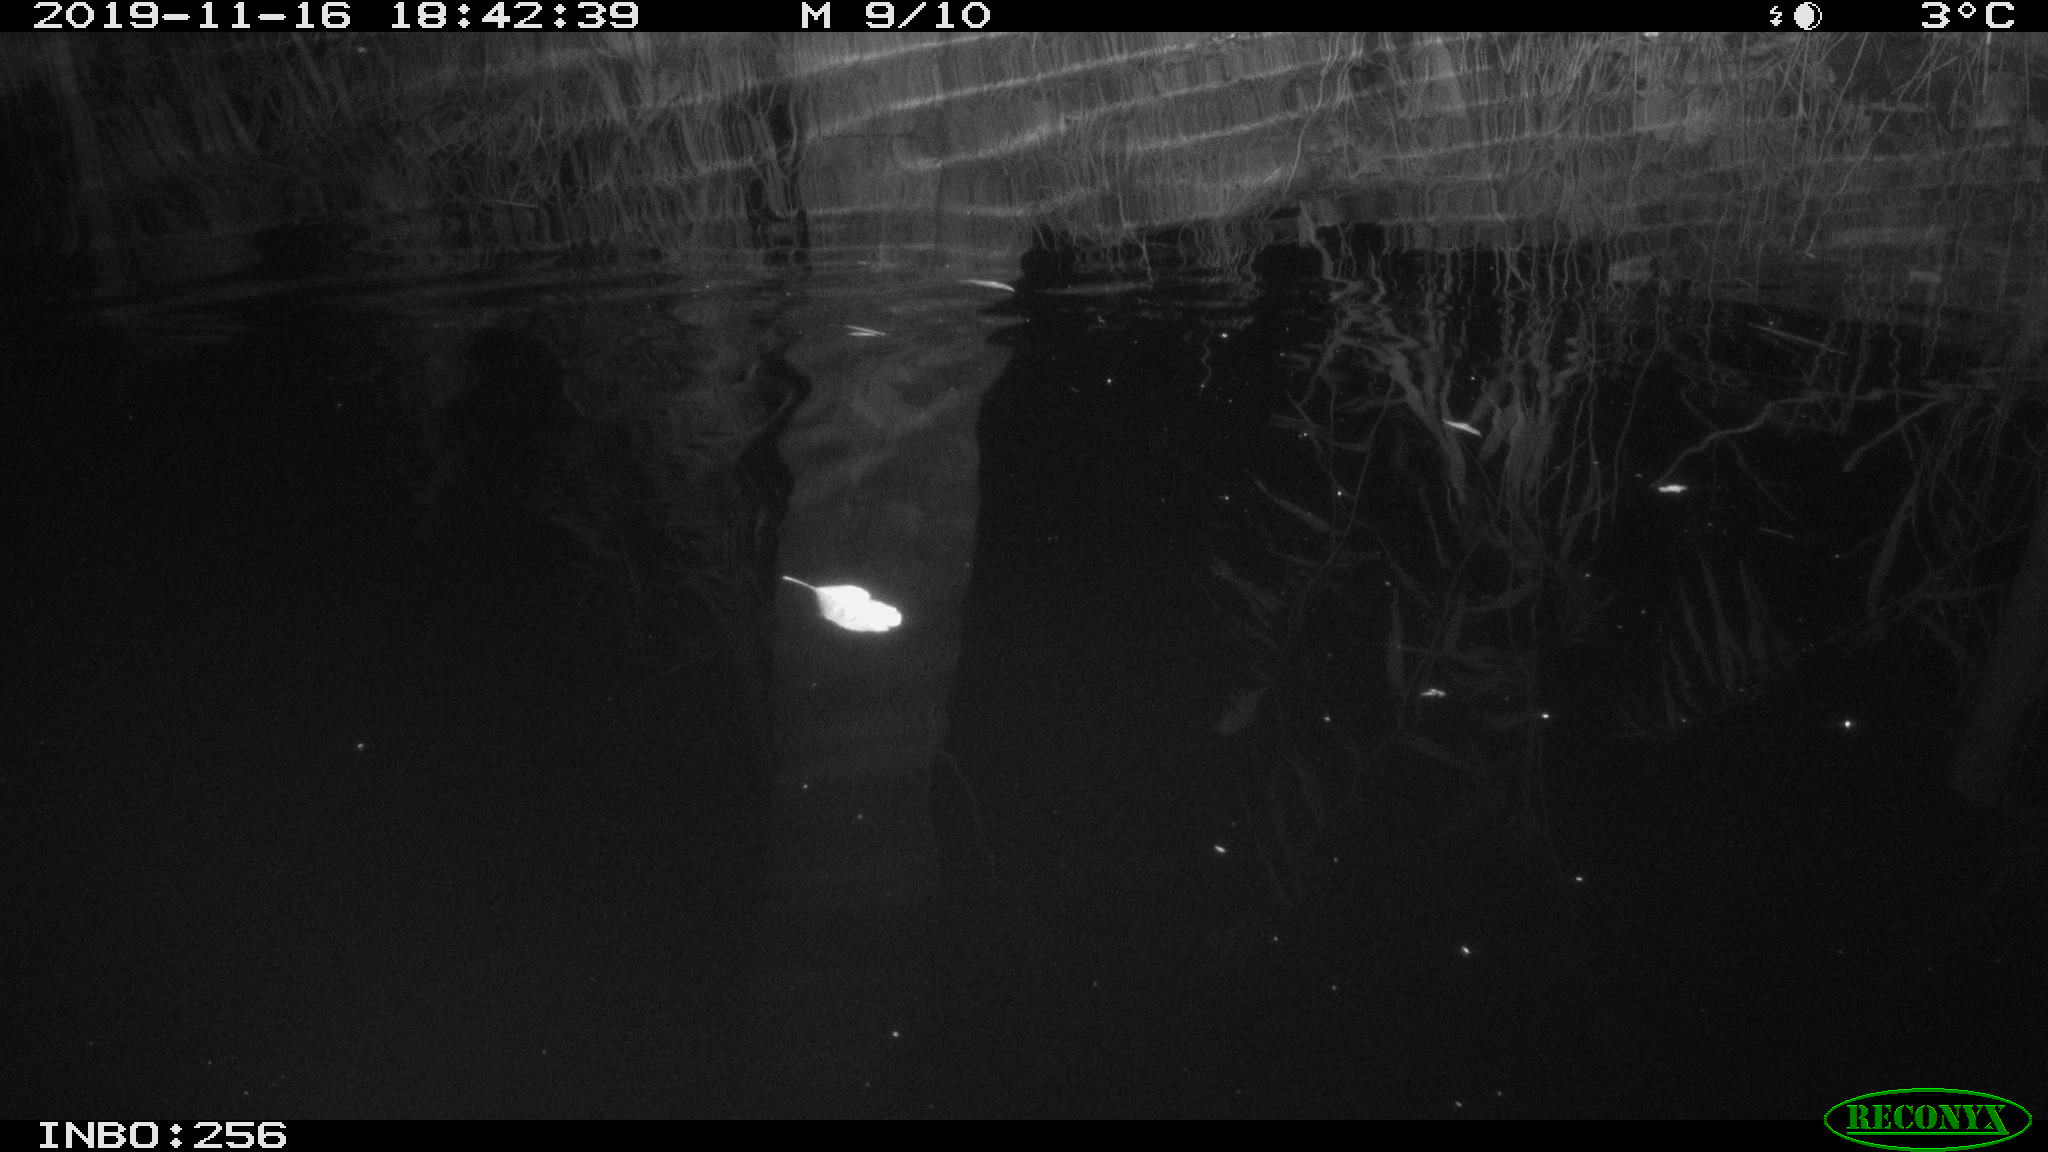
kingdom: Animalia
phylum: Chordata
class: Mammalia
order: Rodentia
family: Muridae
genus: Rattus
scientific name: Rattus norvegicus
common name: Brown rat
